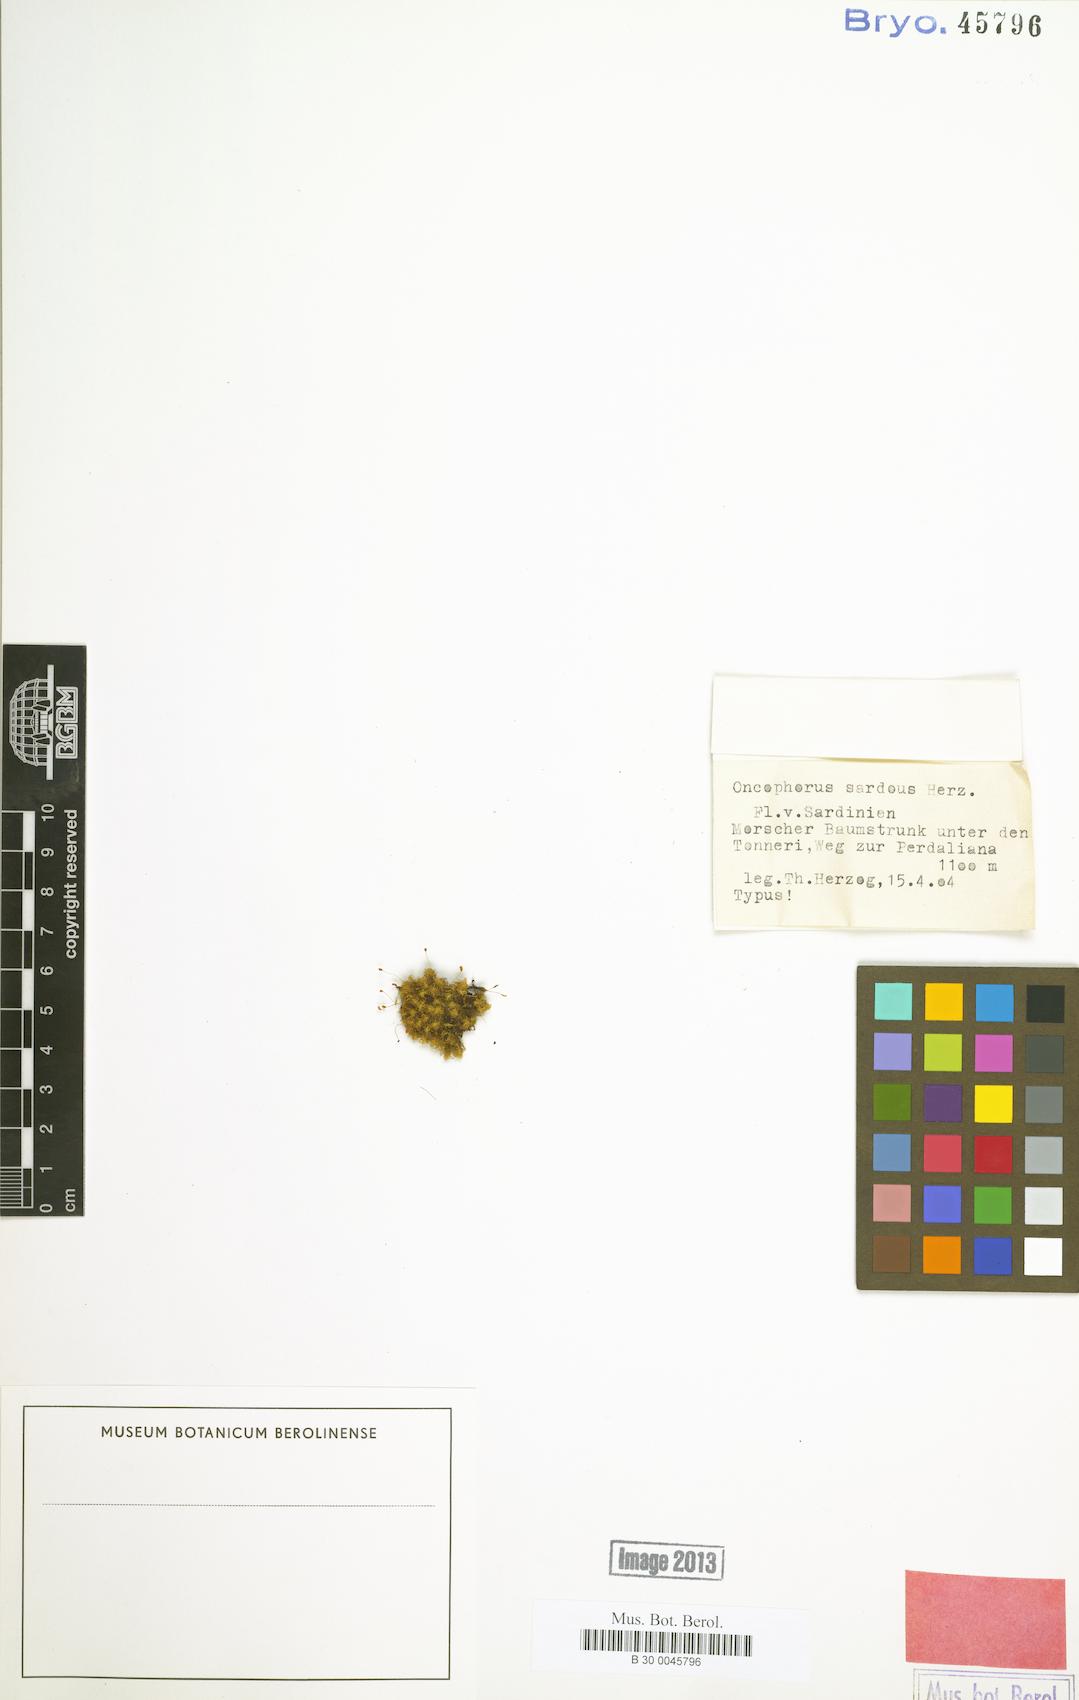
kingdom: Plantae
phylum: Bryophyta
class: Bryopsida
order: Dicranales
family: Rhabdoweisiaceae
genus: Brideliella
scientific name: Brideliella wahlenbergii
